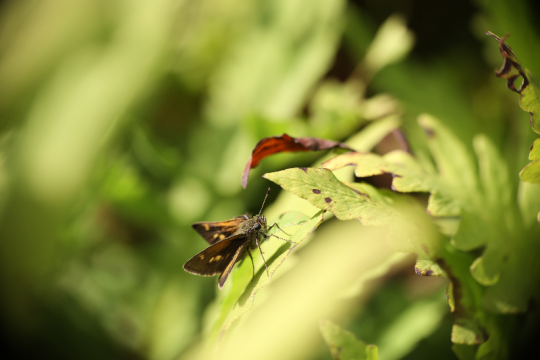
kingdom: Animalia
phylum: Arthropoda
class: Insecta
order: Lepidoptera
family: Hesperiidae
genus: Polites
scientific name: Polites
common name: Long Dash Skipper
